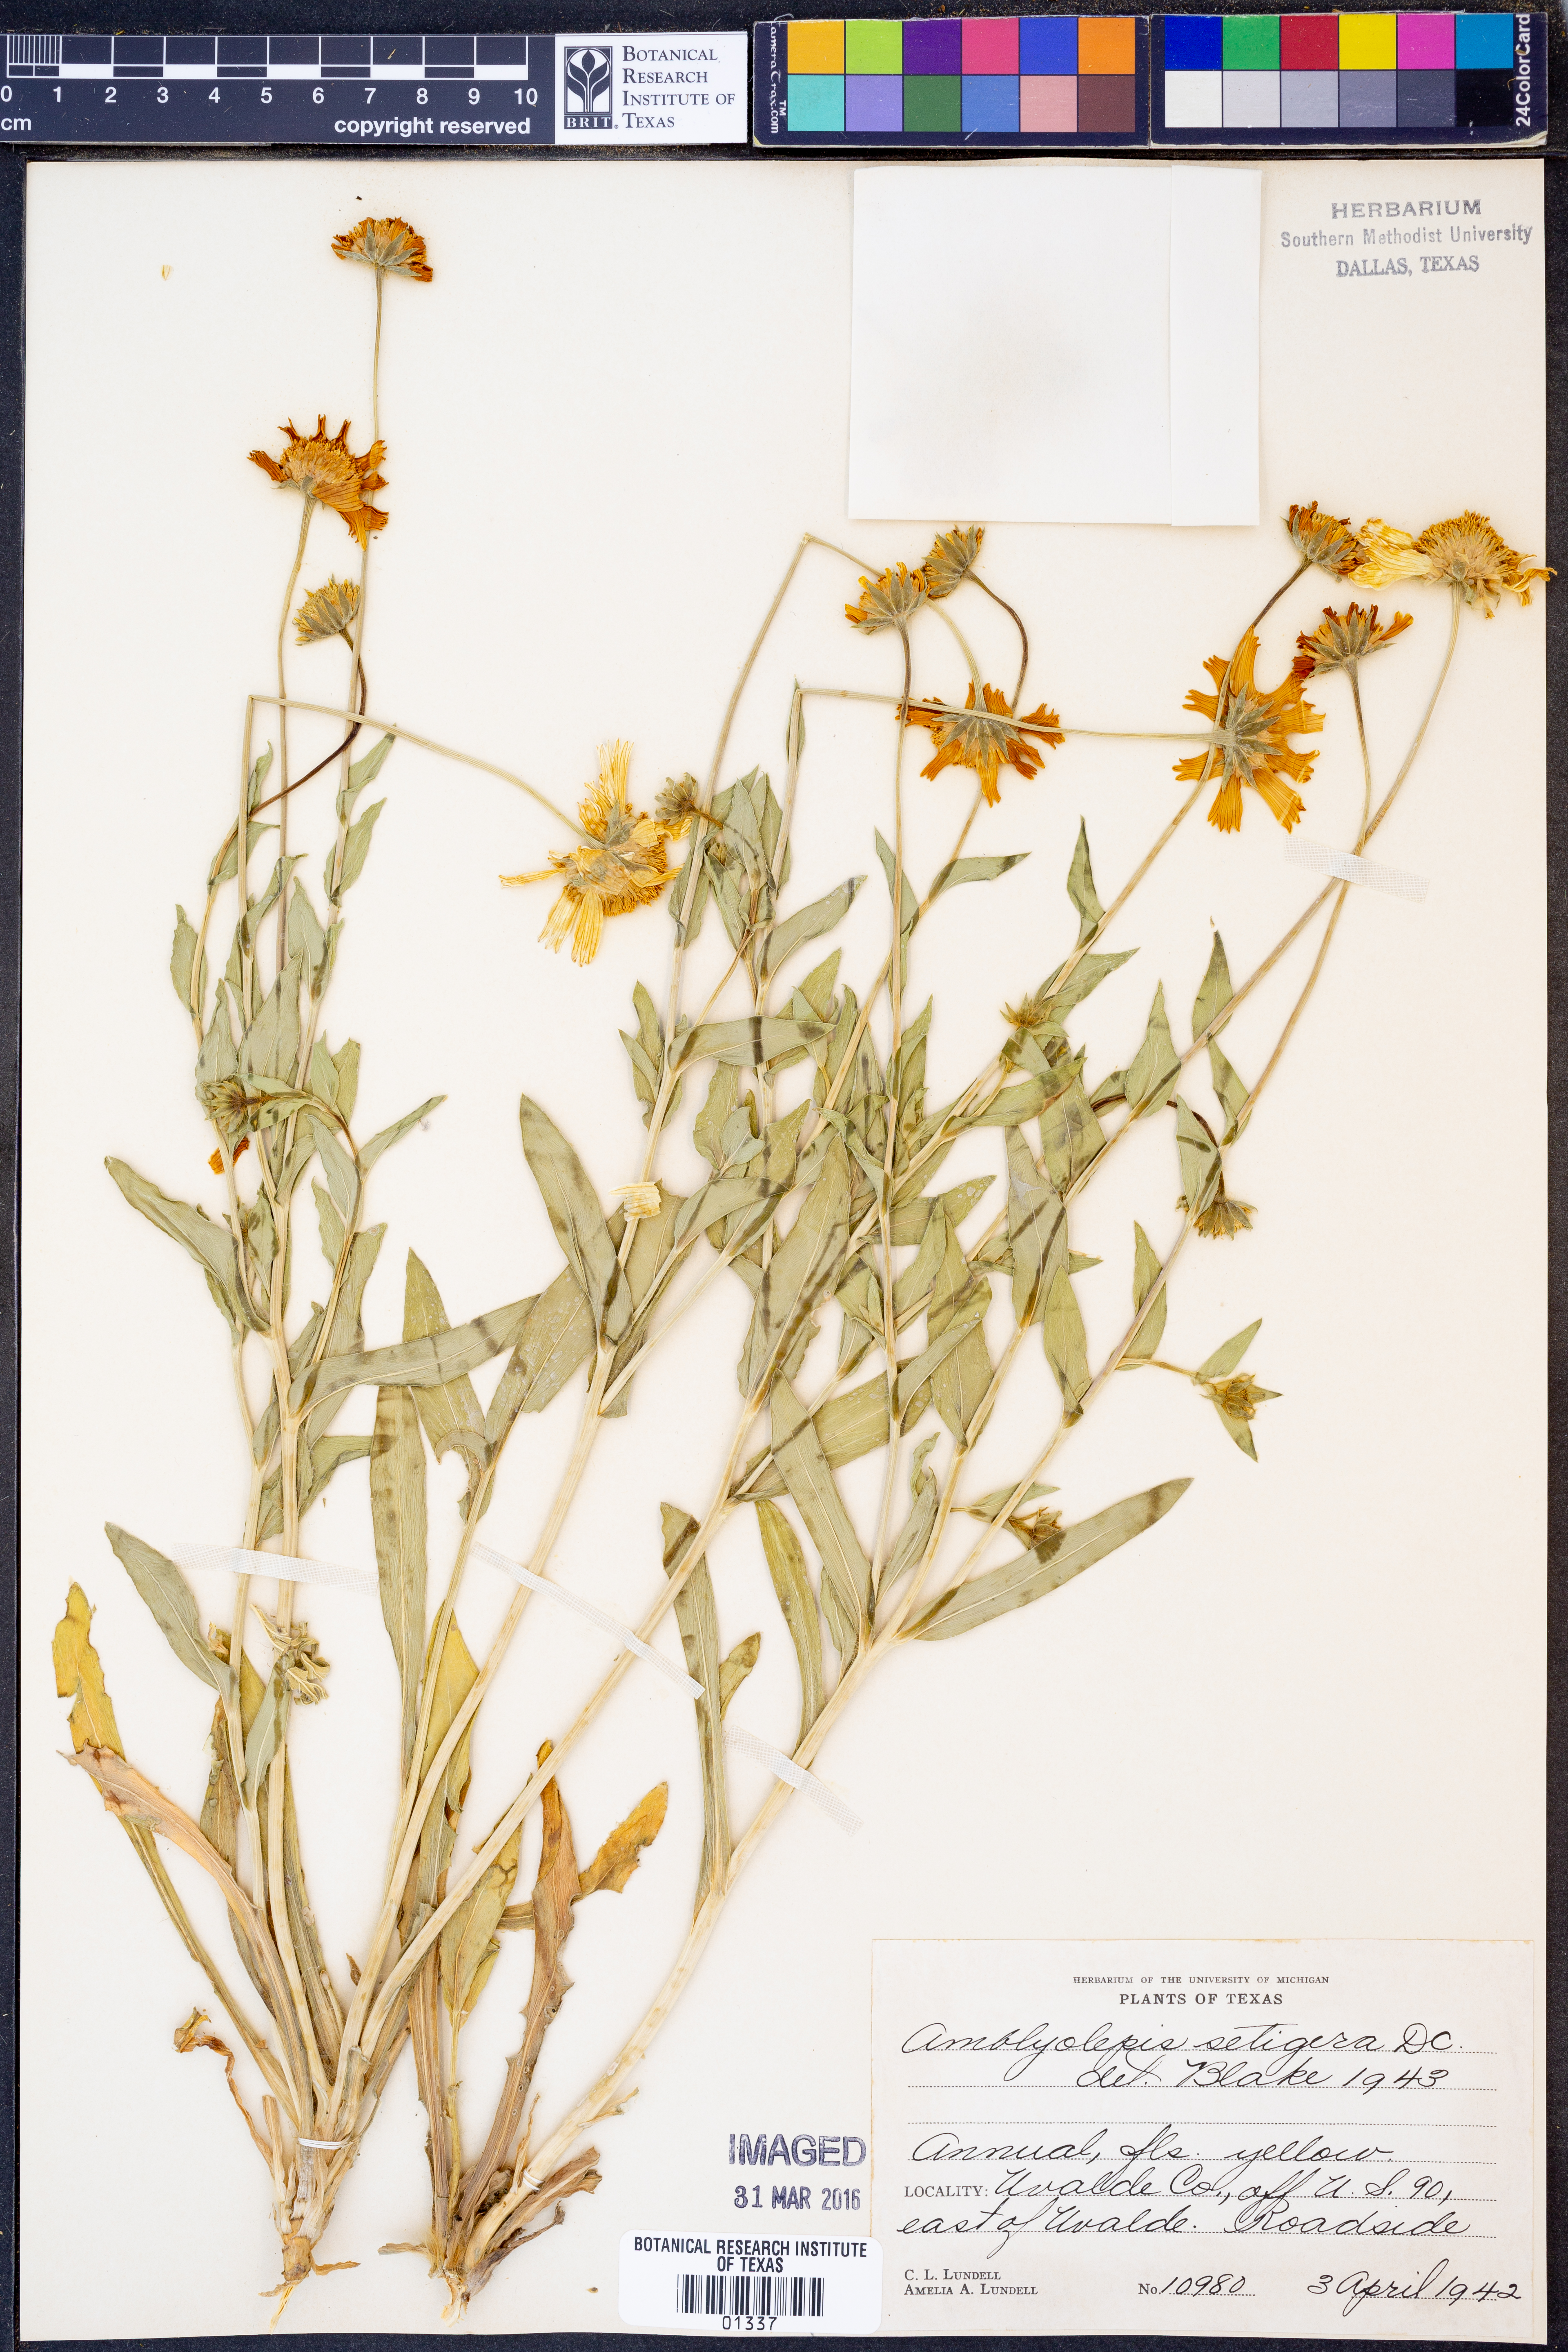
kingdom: Plantae
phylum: Tracheophyta
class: Magnoliopsida
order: Asterales
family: Asteraceae
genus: Amblyolepis
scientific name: Amblyolepis setigera
